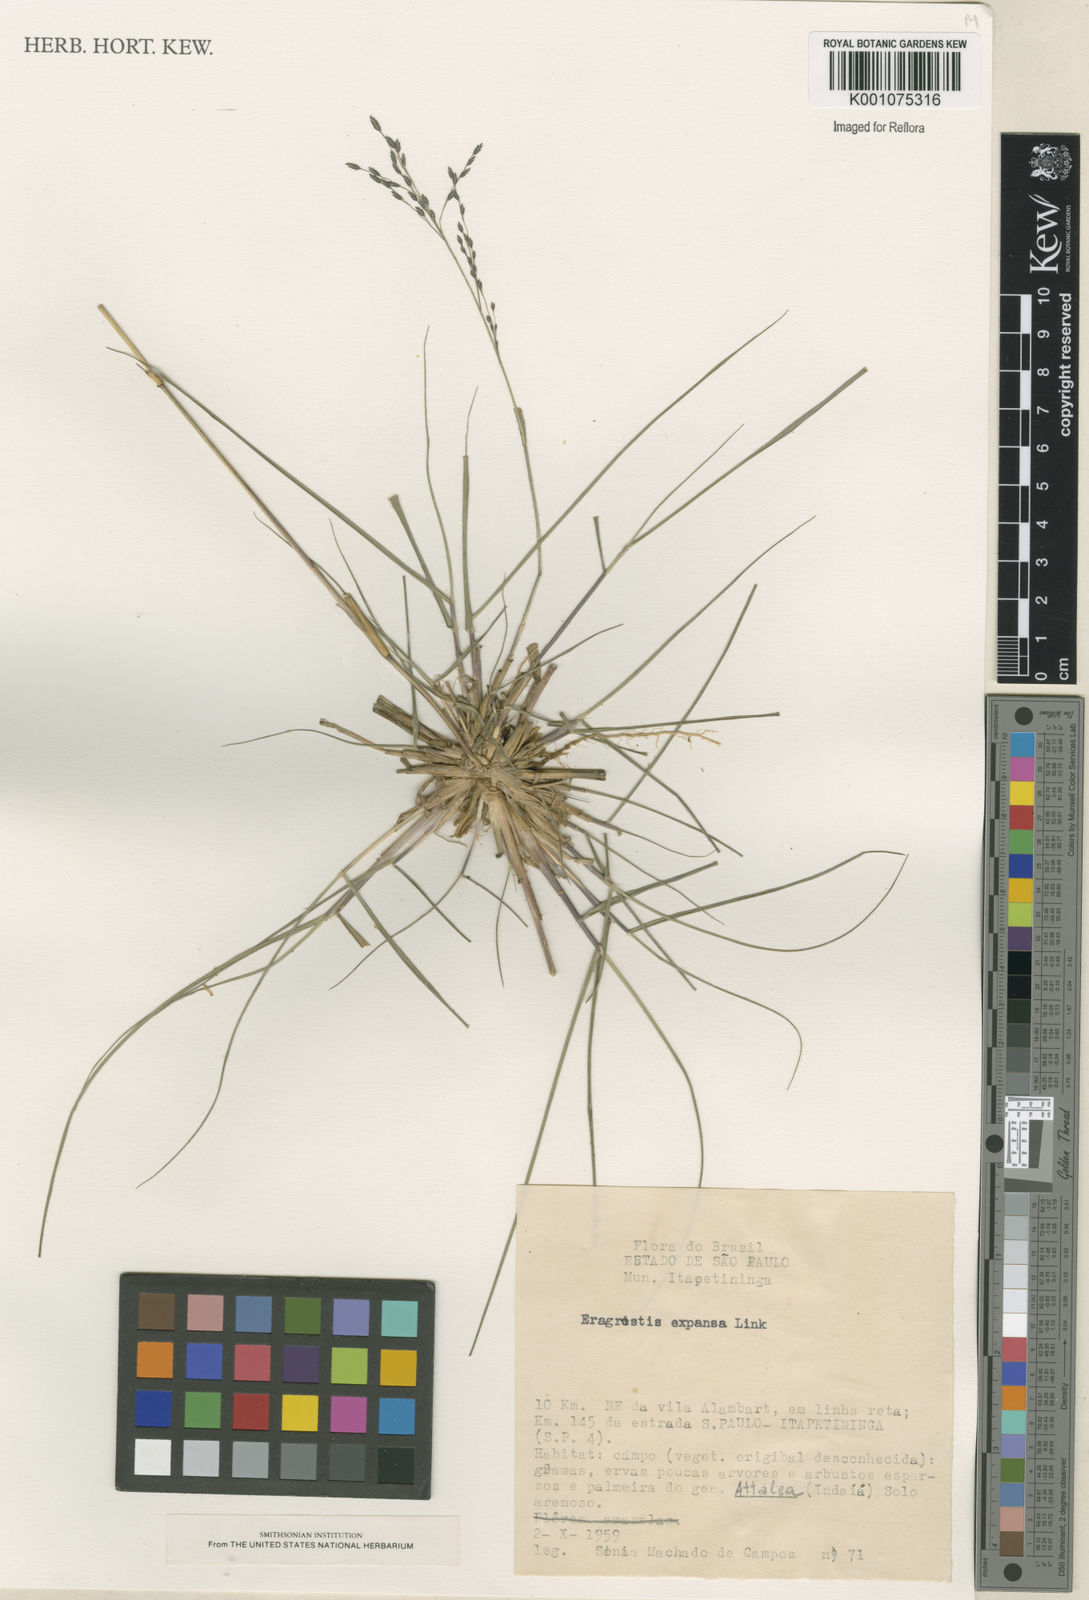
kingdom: Plantae
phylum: Tracheophyta
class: Liliopsida
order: Poales
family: Poaceae
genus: Eragrostis
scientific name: Eragrostis bahiensis
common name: Bahia lovegrass
